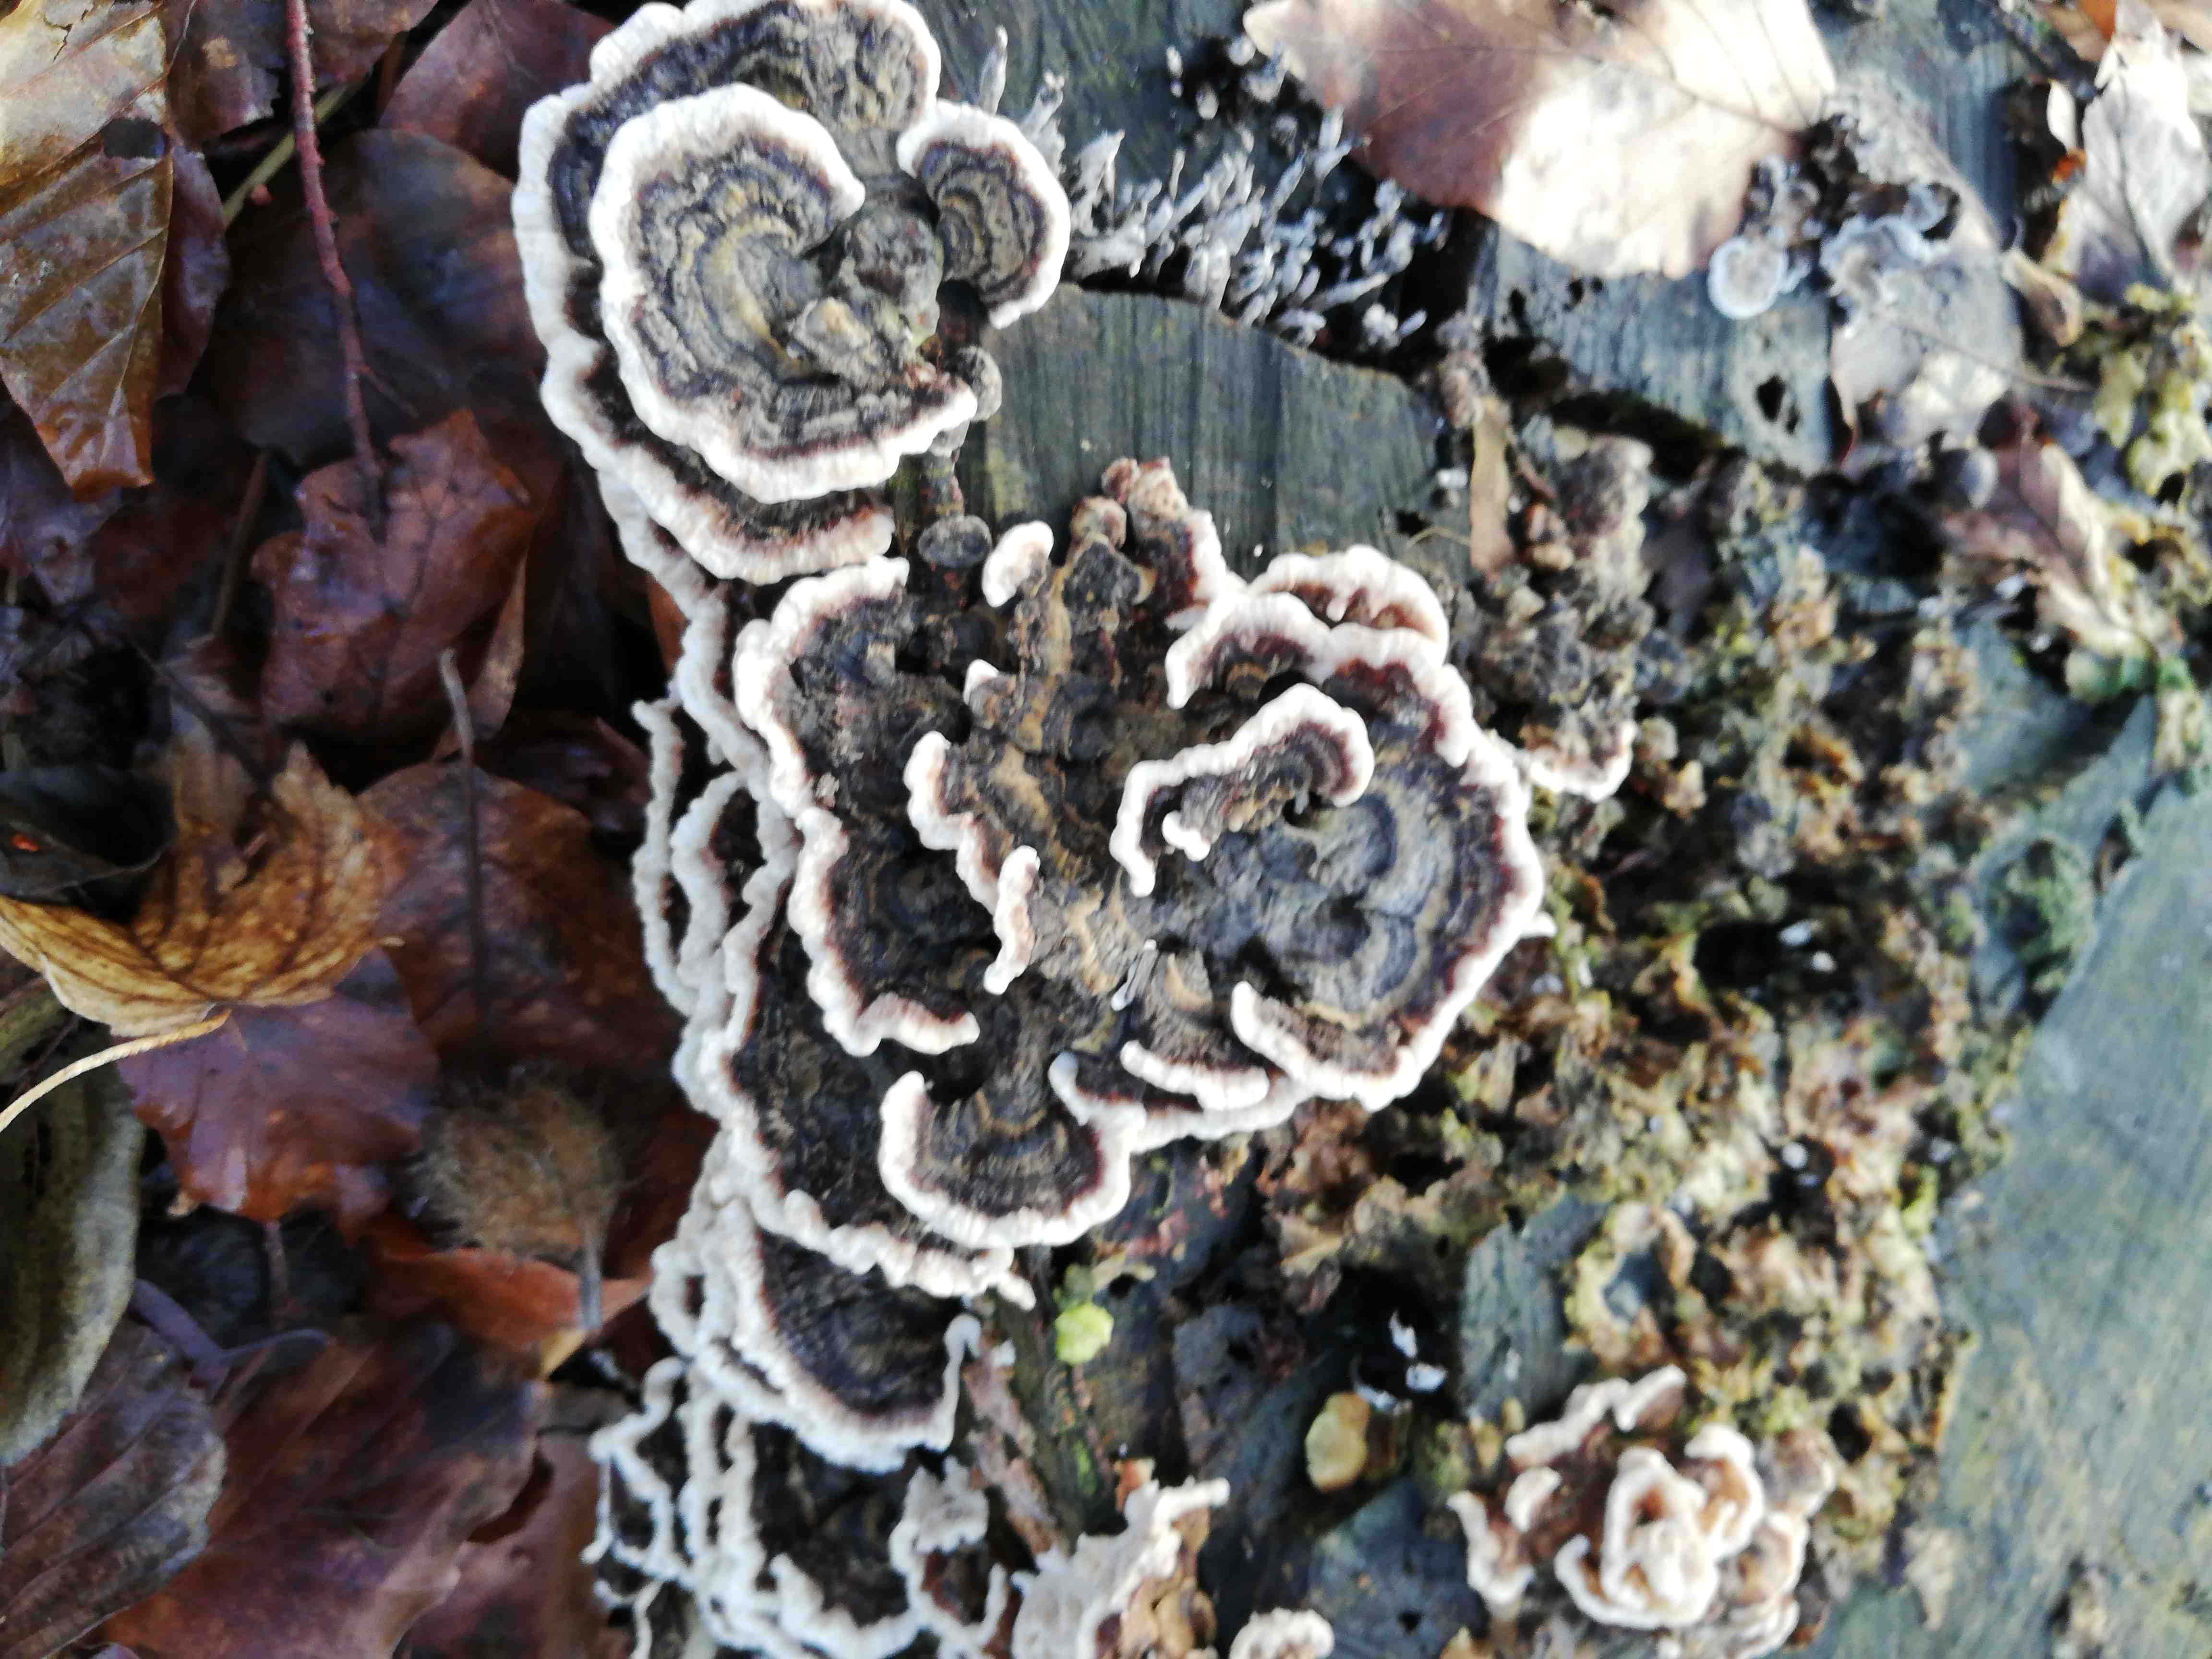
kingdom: Fungi
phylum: Basidiomycota
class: Agaricomycetes
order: Polyporales
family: Polyporaceae
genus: Trametes
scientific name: Trametes versicolor
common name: broget læderporesvamp
